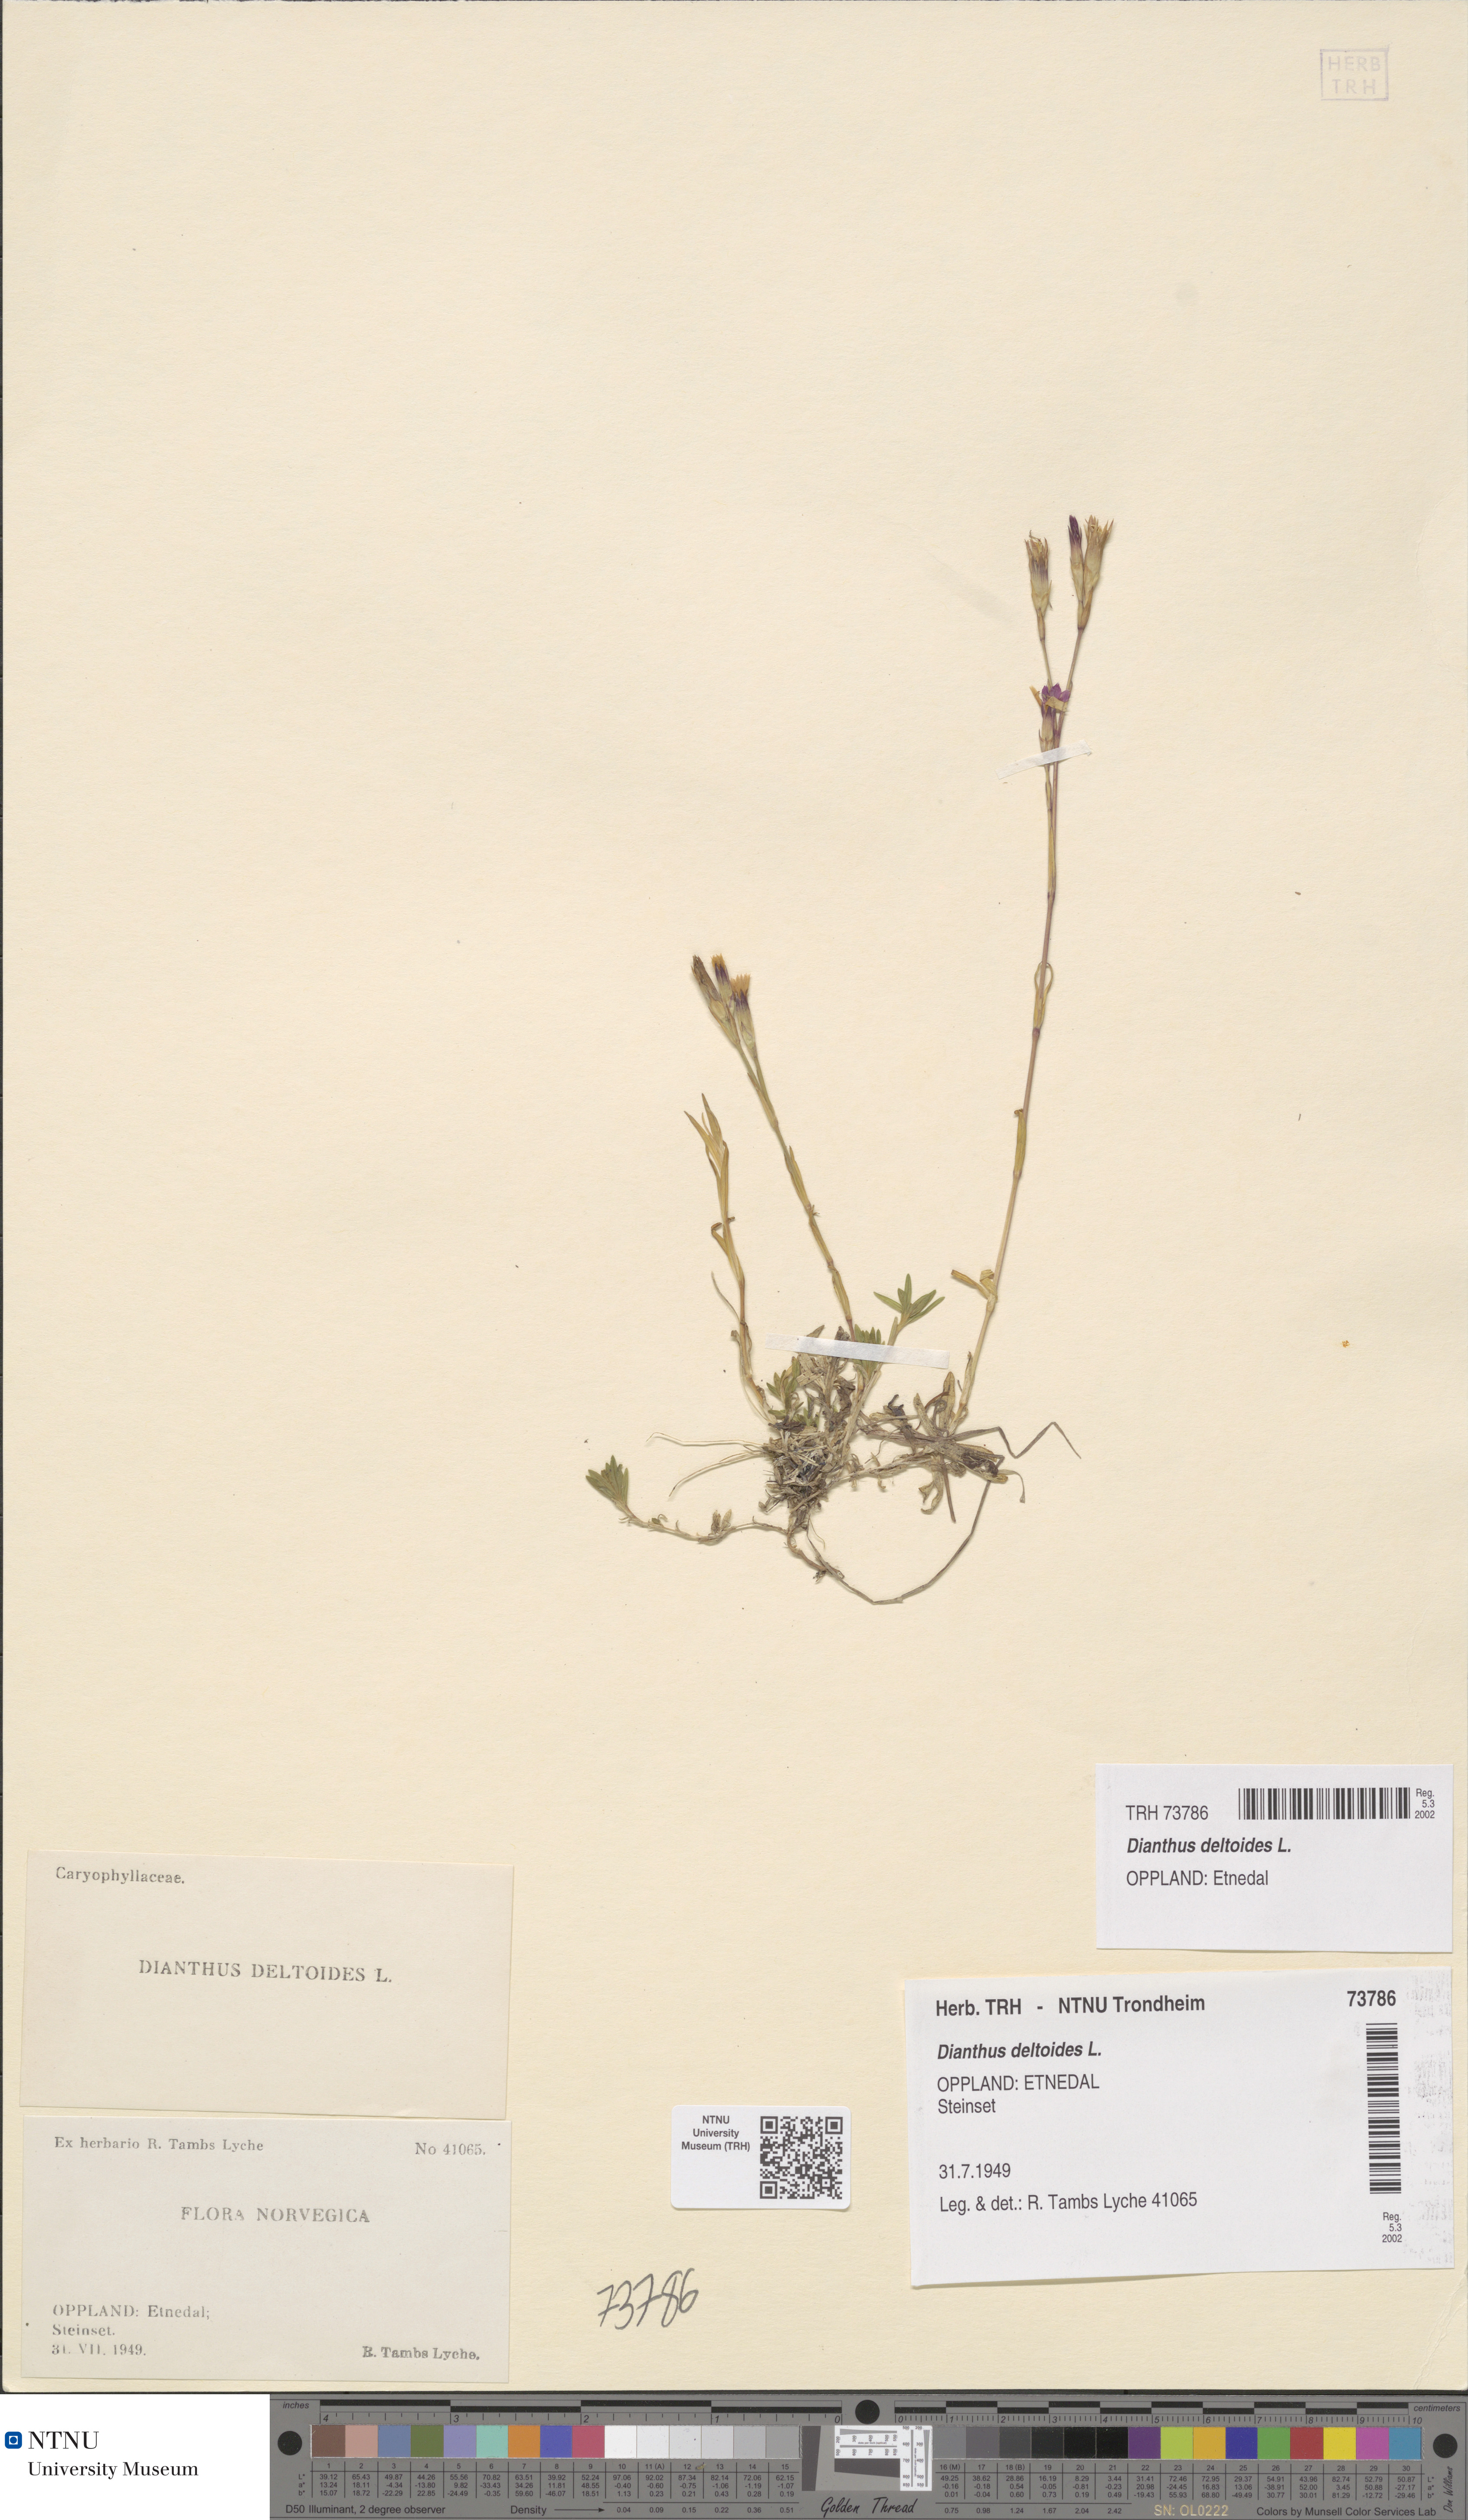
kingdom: Plantae
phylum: Tracheophyta
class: Magnoliopsida
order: Caryophyllales
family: Caryophyllaceae
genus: Dianthus
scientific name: Dianthus deltoides
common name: Maiden pink
